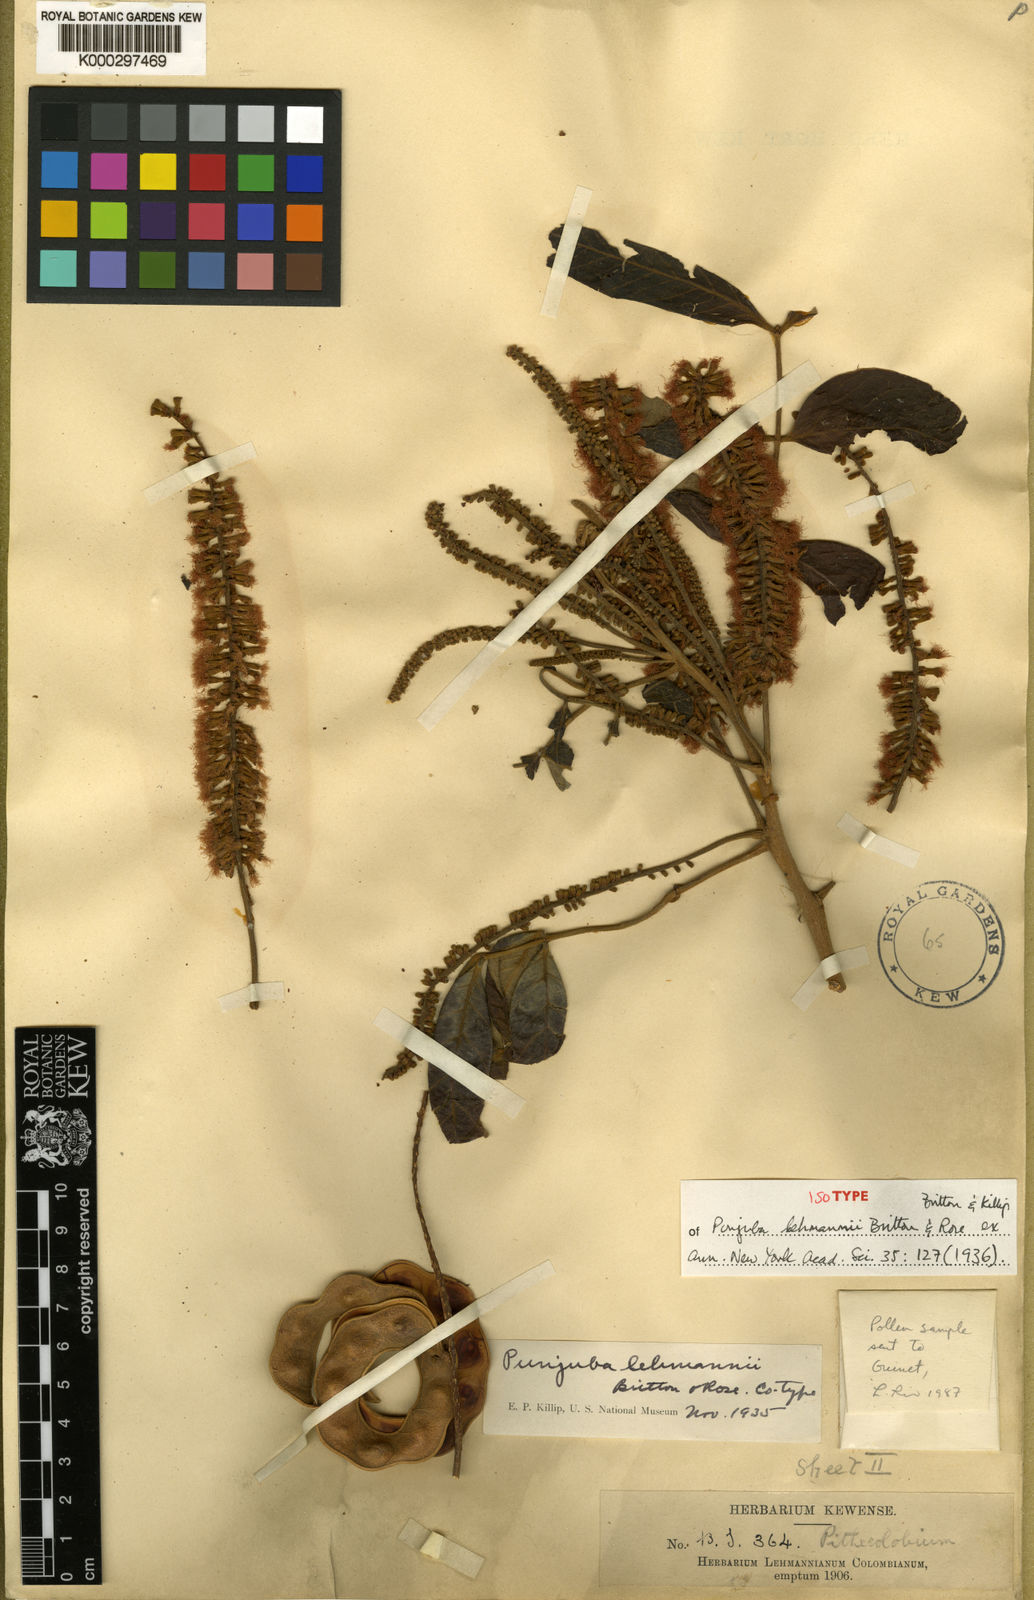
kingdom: Plantae
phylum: Tracheophyta
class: Magnoliopsida
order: Fabales
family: Fabaceae
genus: Punjuba
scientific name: Punjuba killipii
